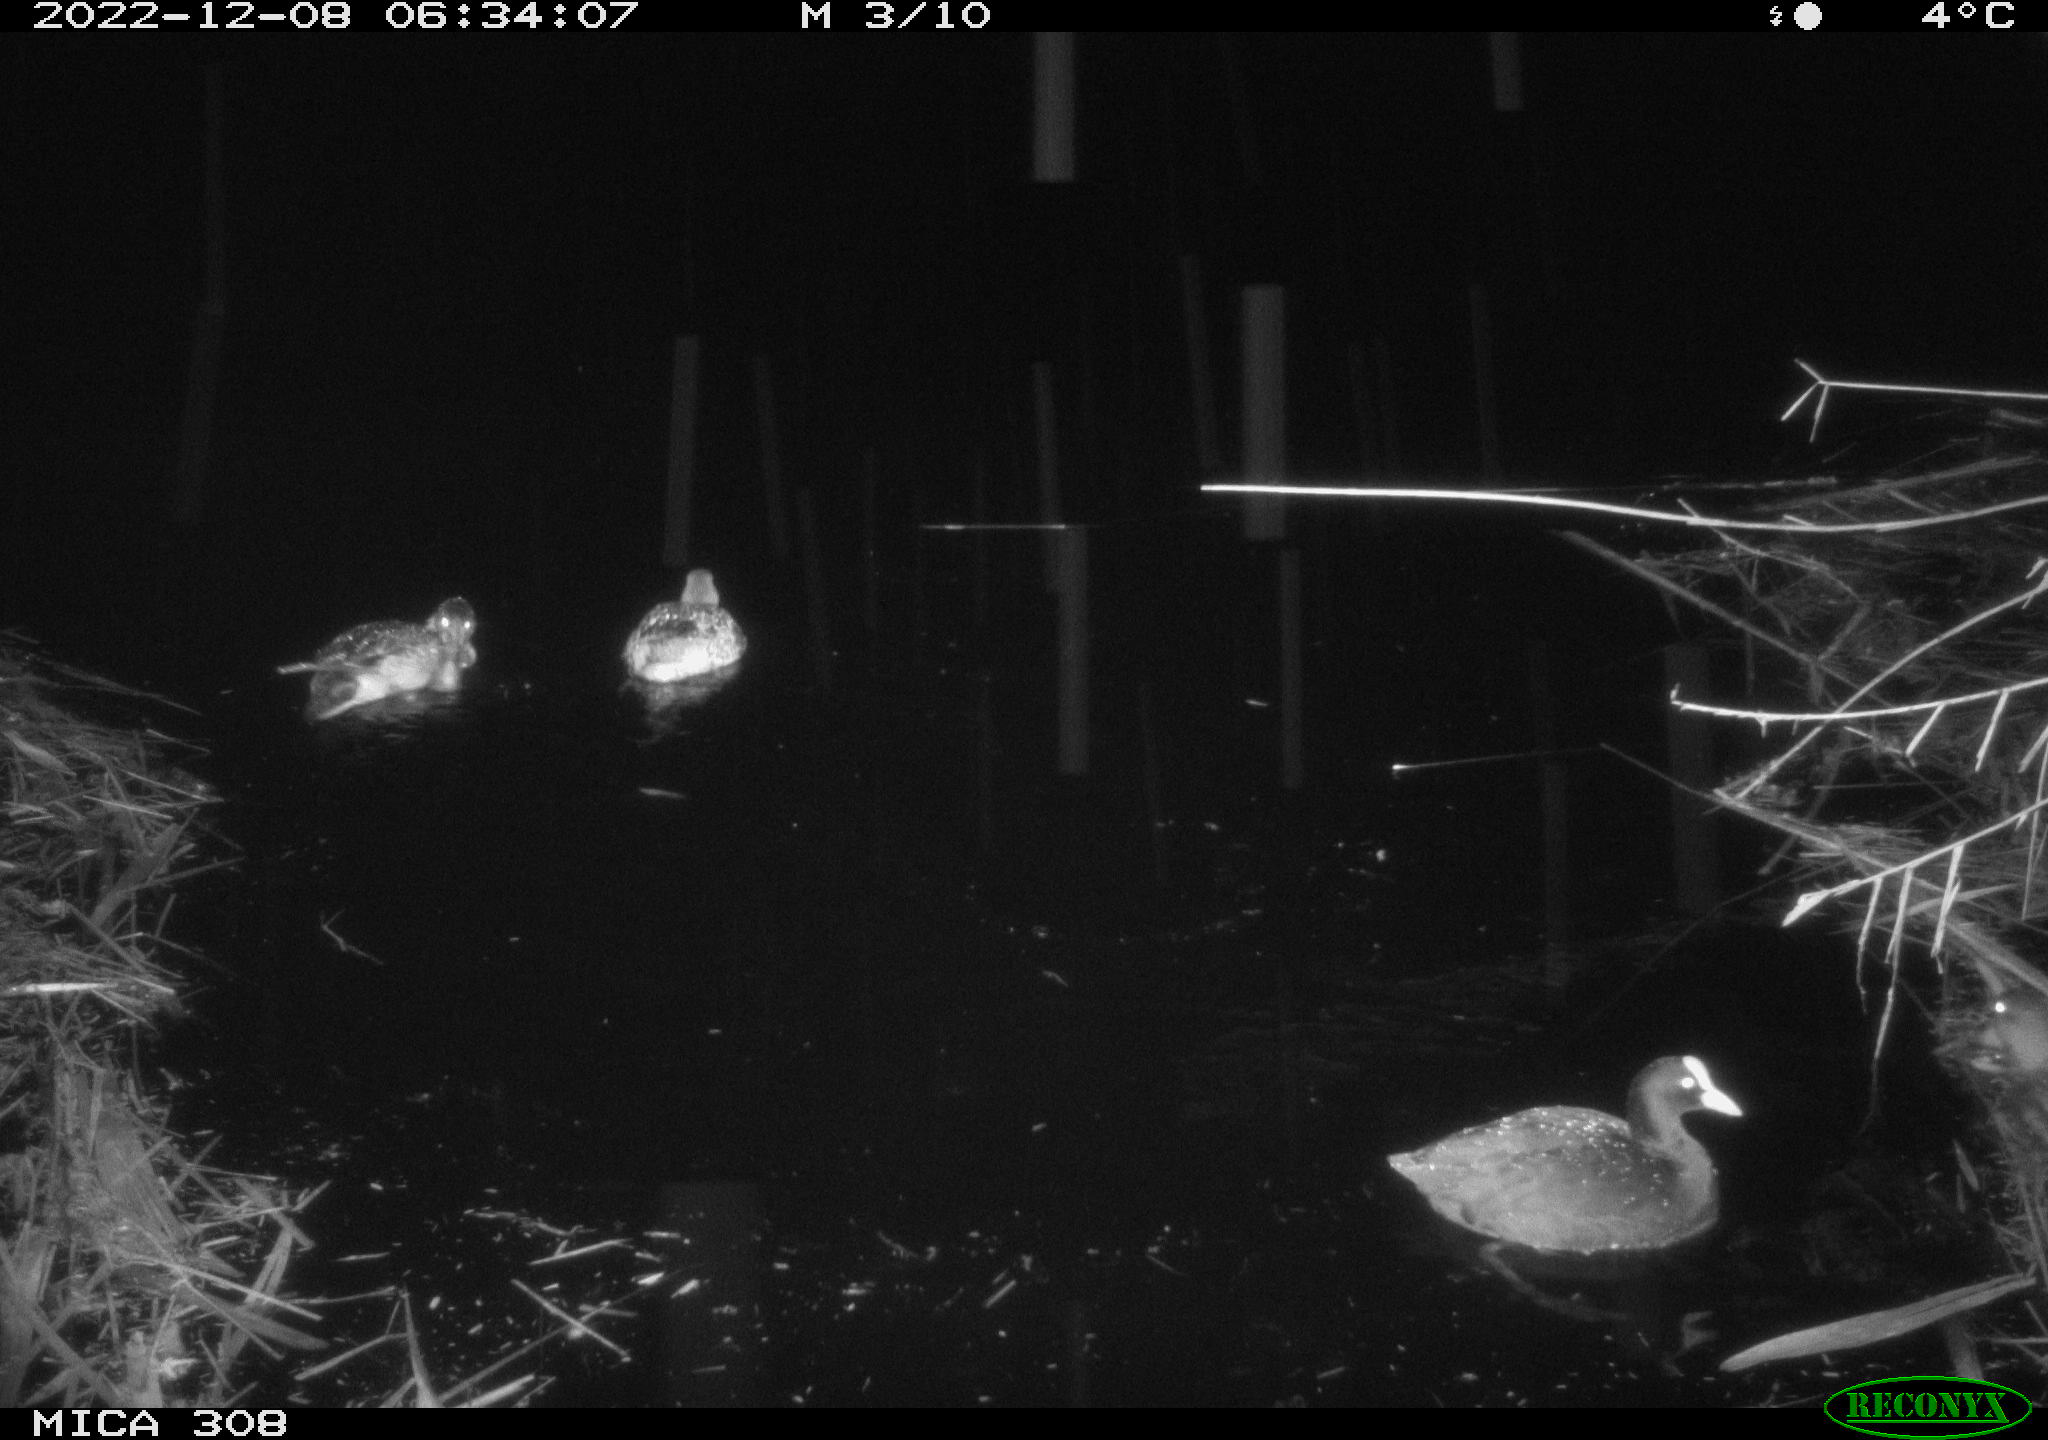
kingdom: Animalia
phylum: Chordata
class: Aves
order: Gruiformes
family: Rallidae
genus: Fulica
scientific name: Fulica atra
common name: Eurasian coot
